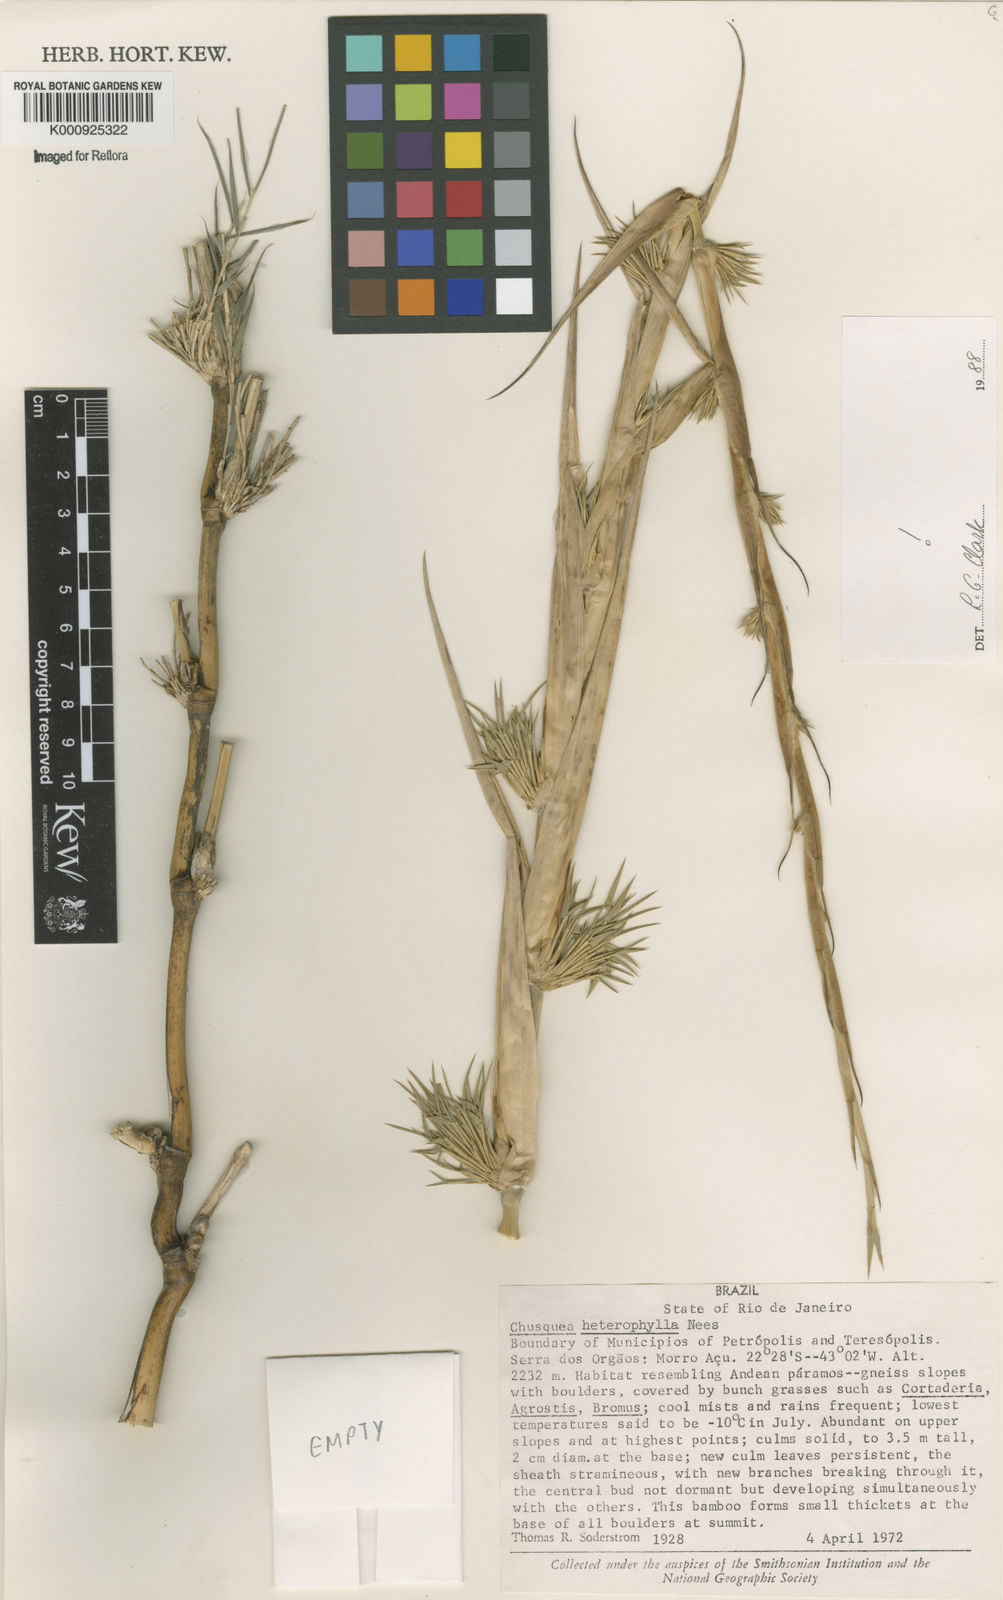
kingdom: Plantae
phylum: Tracheophyta
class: Liliopsida
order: Poales
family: Poaceae
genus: Chusquea
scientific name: Chusquea heterophylla
